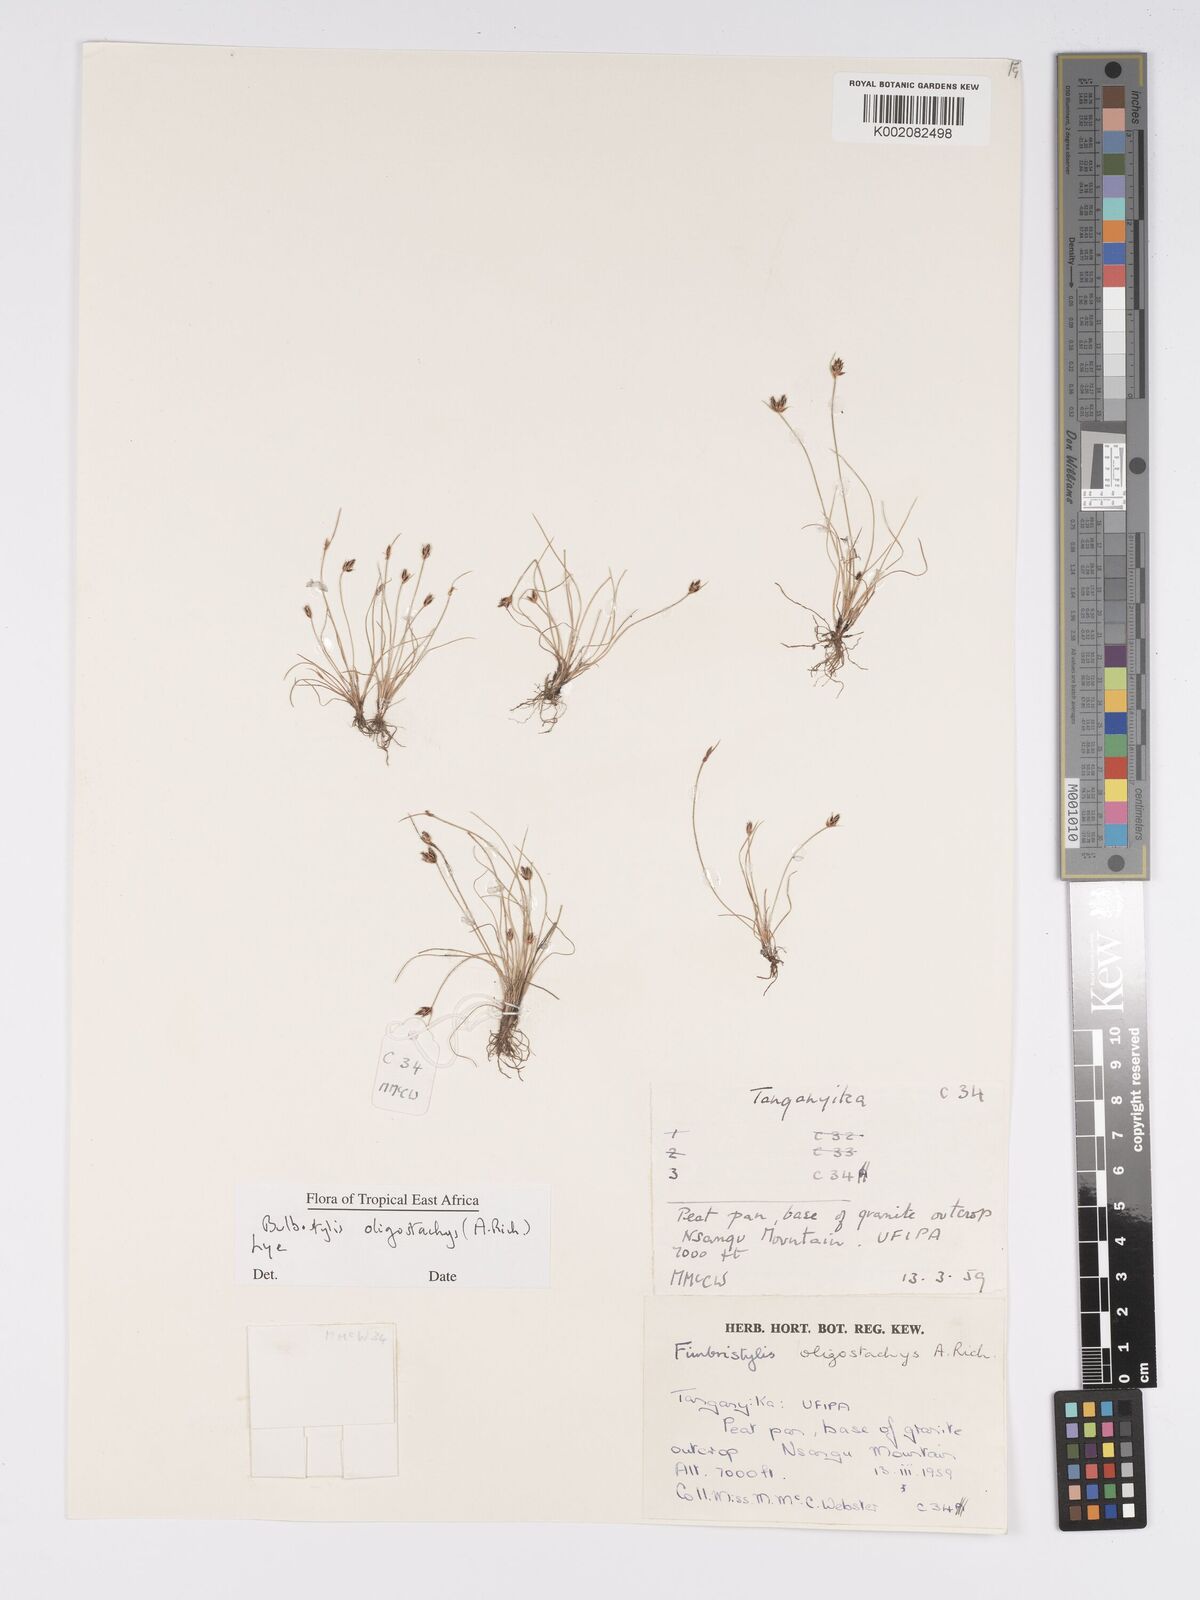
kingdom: Plantae
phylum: Tracheophyta
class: Liliopsida
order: Poales
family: Cyperaceae
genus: Bulbostylis
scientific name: Bulbostylis oligostachys
